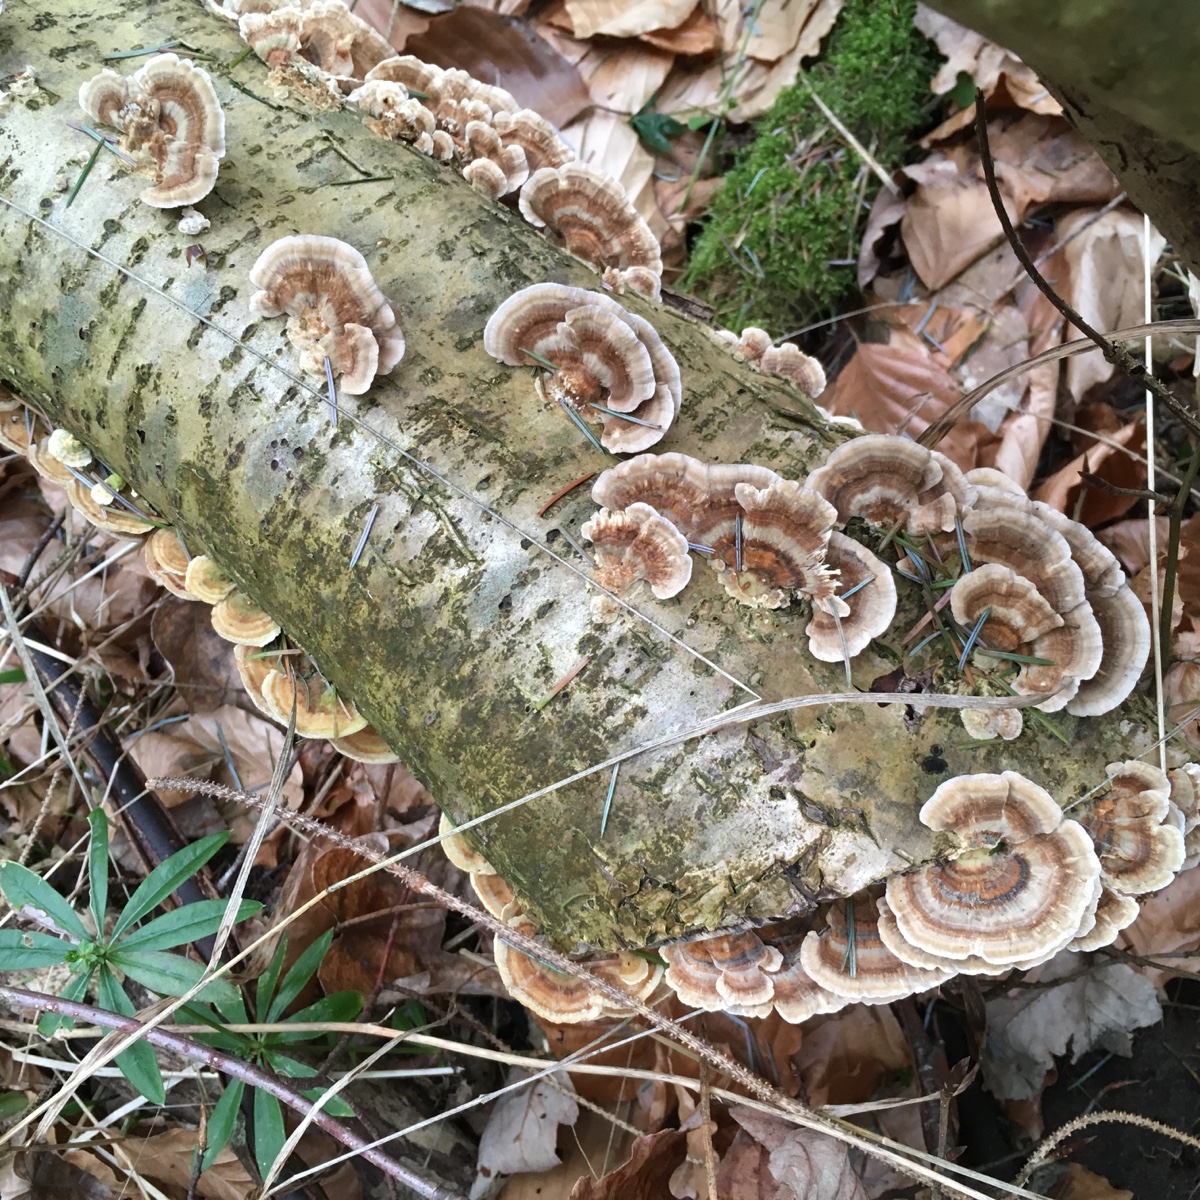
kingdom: Fungi
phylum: Basidiomycota
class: Agaricomycetes
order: Polyporales
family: Polyporaceae
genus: Trametes
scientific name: Trametes versicolor
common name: broget læderporesvamp
